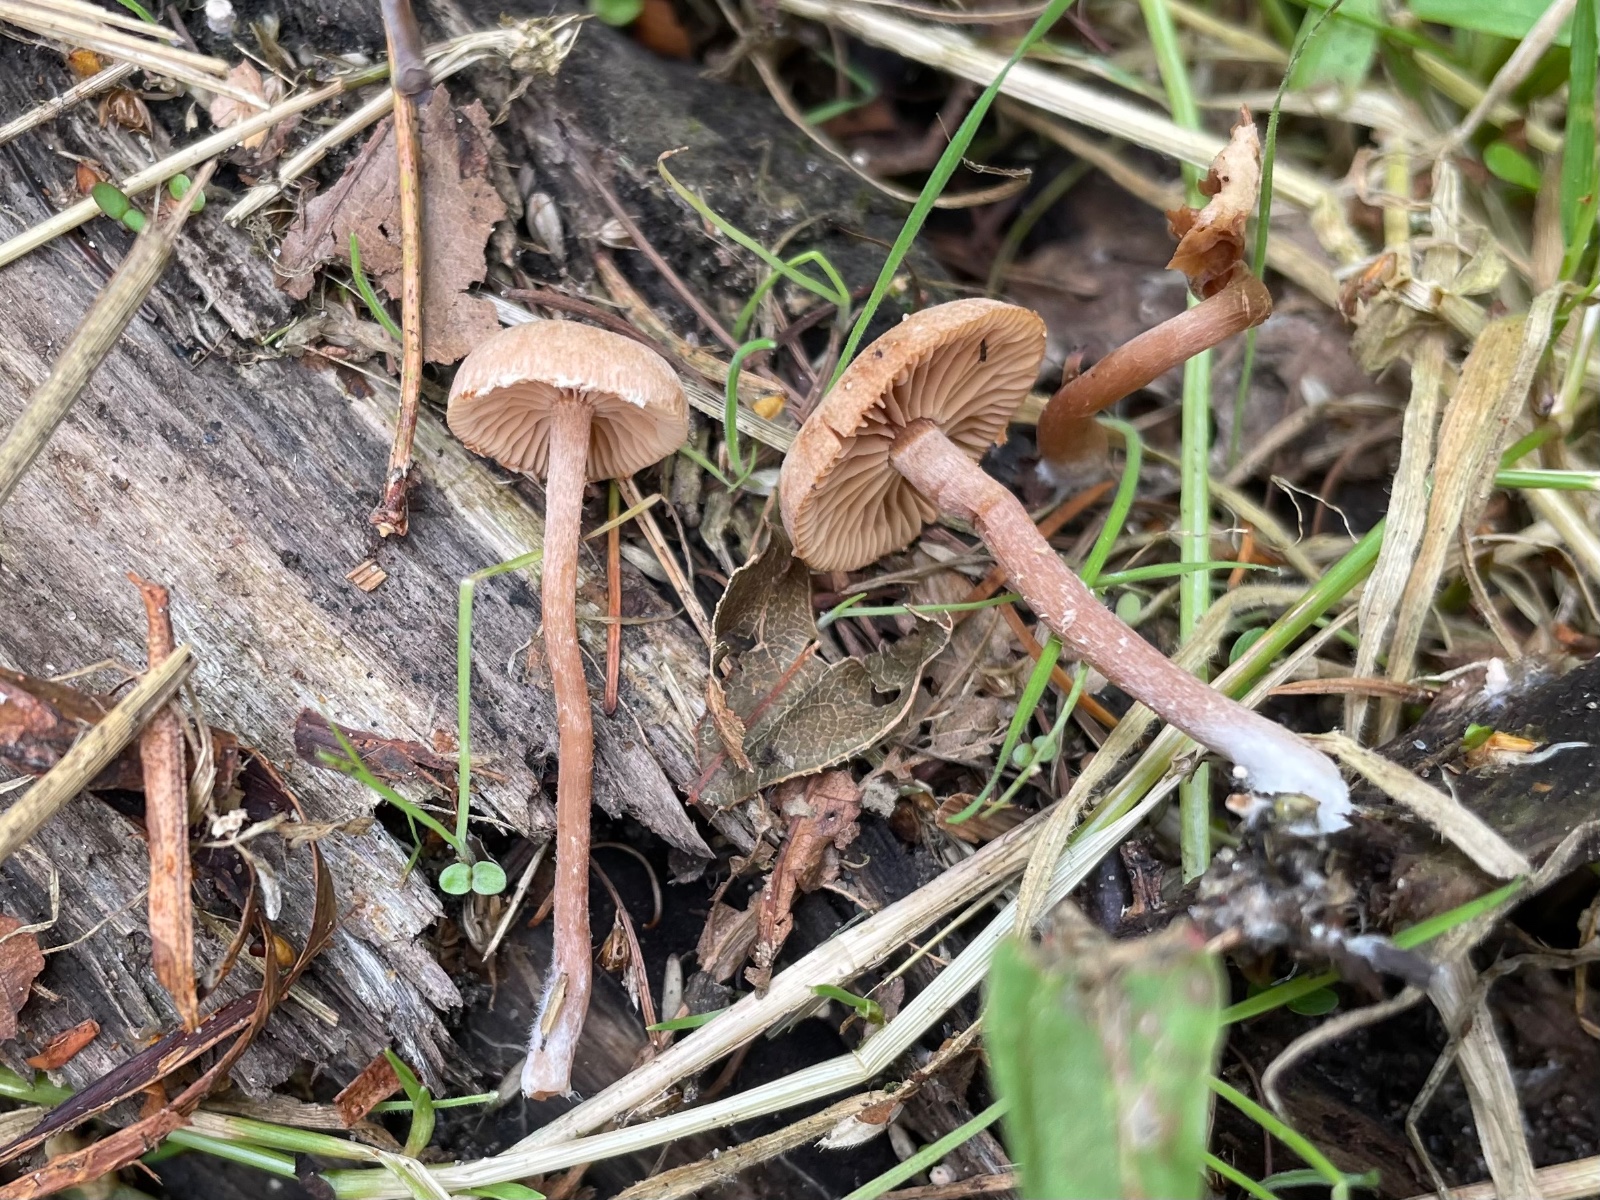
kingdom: Fungi
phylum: Basidiomycota
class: Agaricomycetes
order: Agaricales
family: Tubariaceae
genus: Tubaria
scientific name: Tubaria conspersa
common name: bleg fnughat
